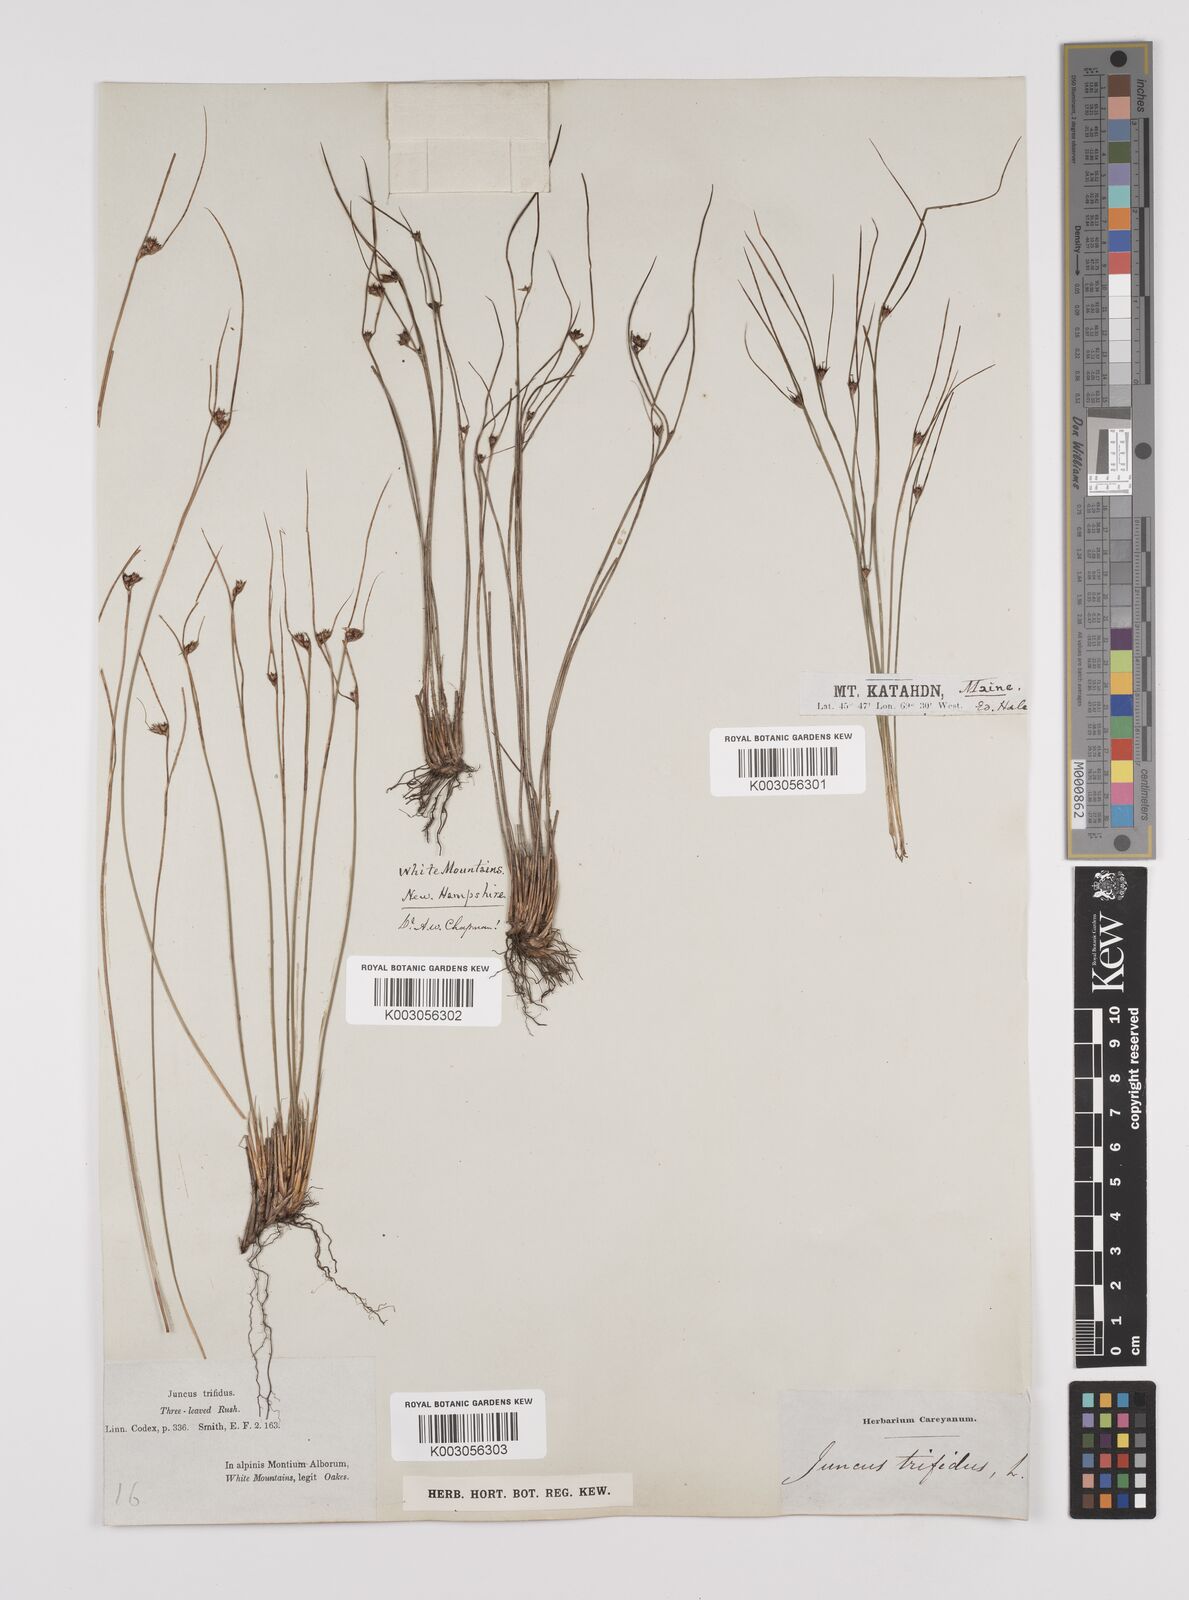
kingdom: Plantae
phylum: Tracheophyta
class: Liliopsida
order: Poales
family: Juncaceae
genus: Oreojuncus
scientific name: Oreojuncus trifidus
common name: Highland rush
